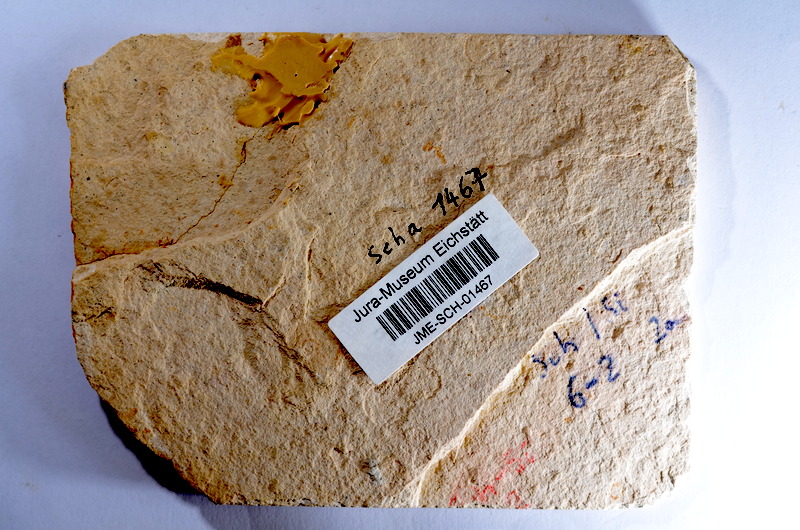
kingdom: Animalia
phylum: Chordata
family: Aspidorhynchidae
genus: Belonostomus
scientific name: Belonostomus tenuirostris
